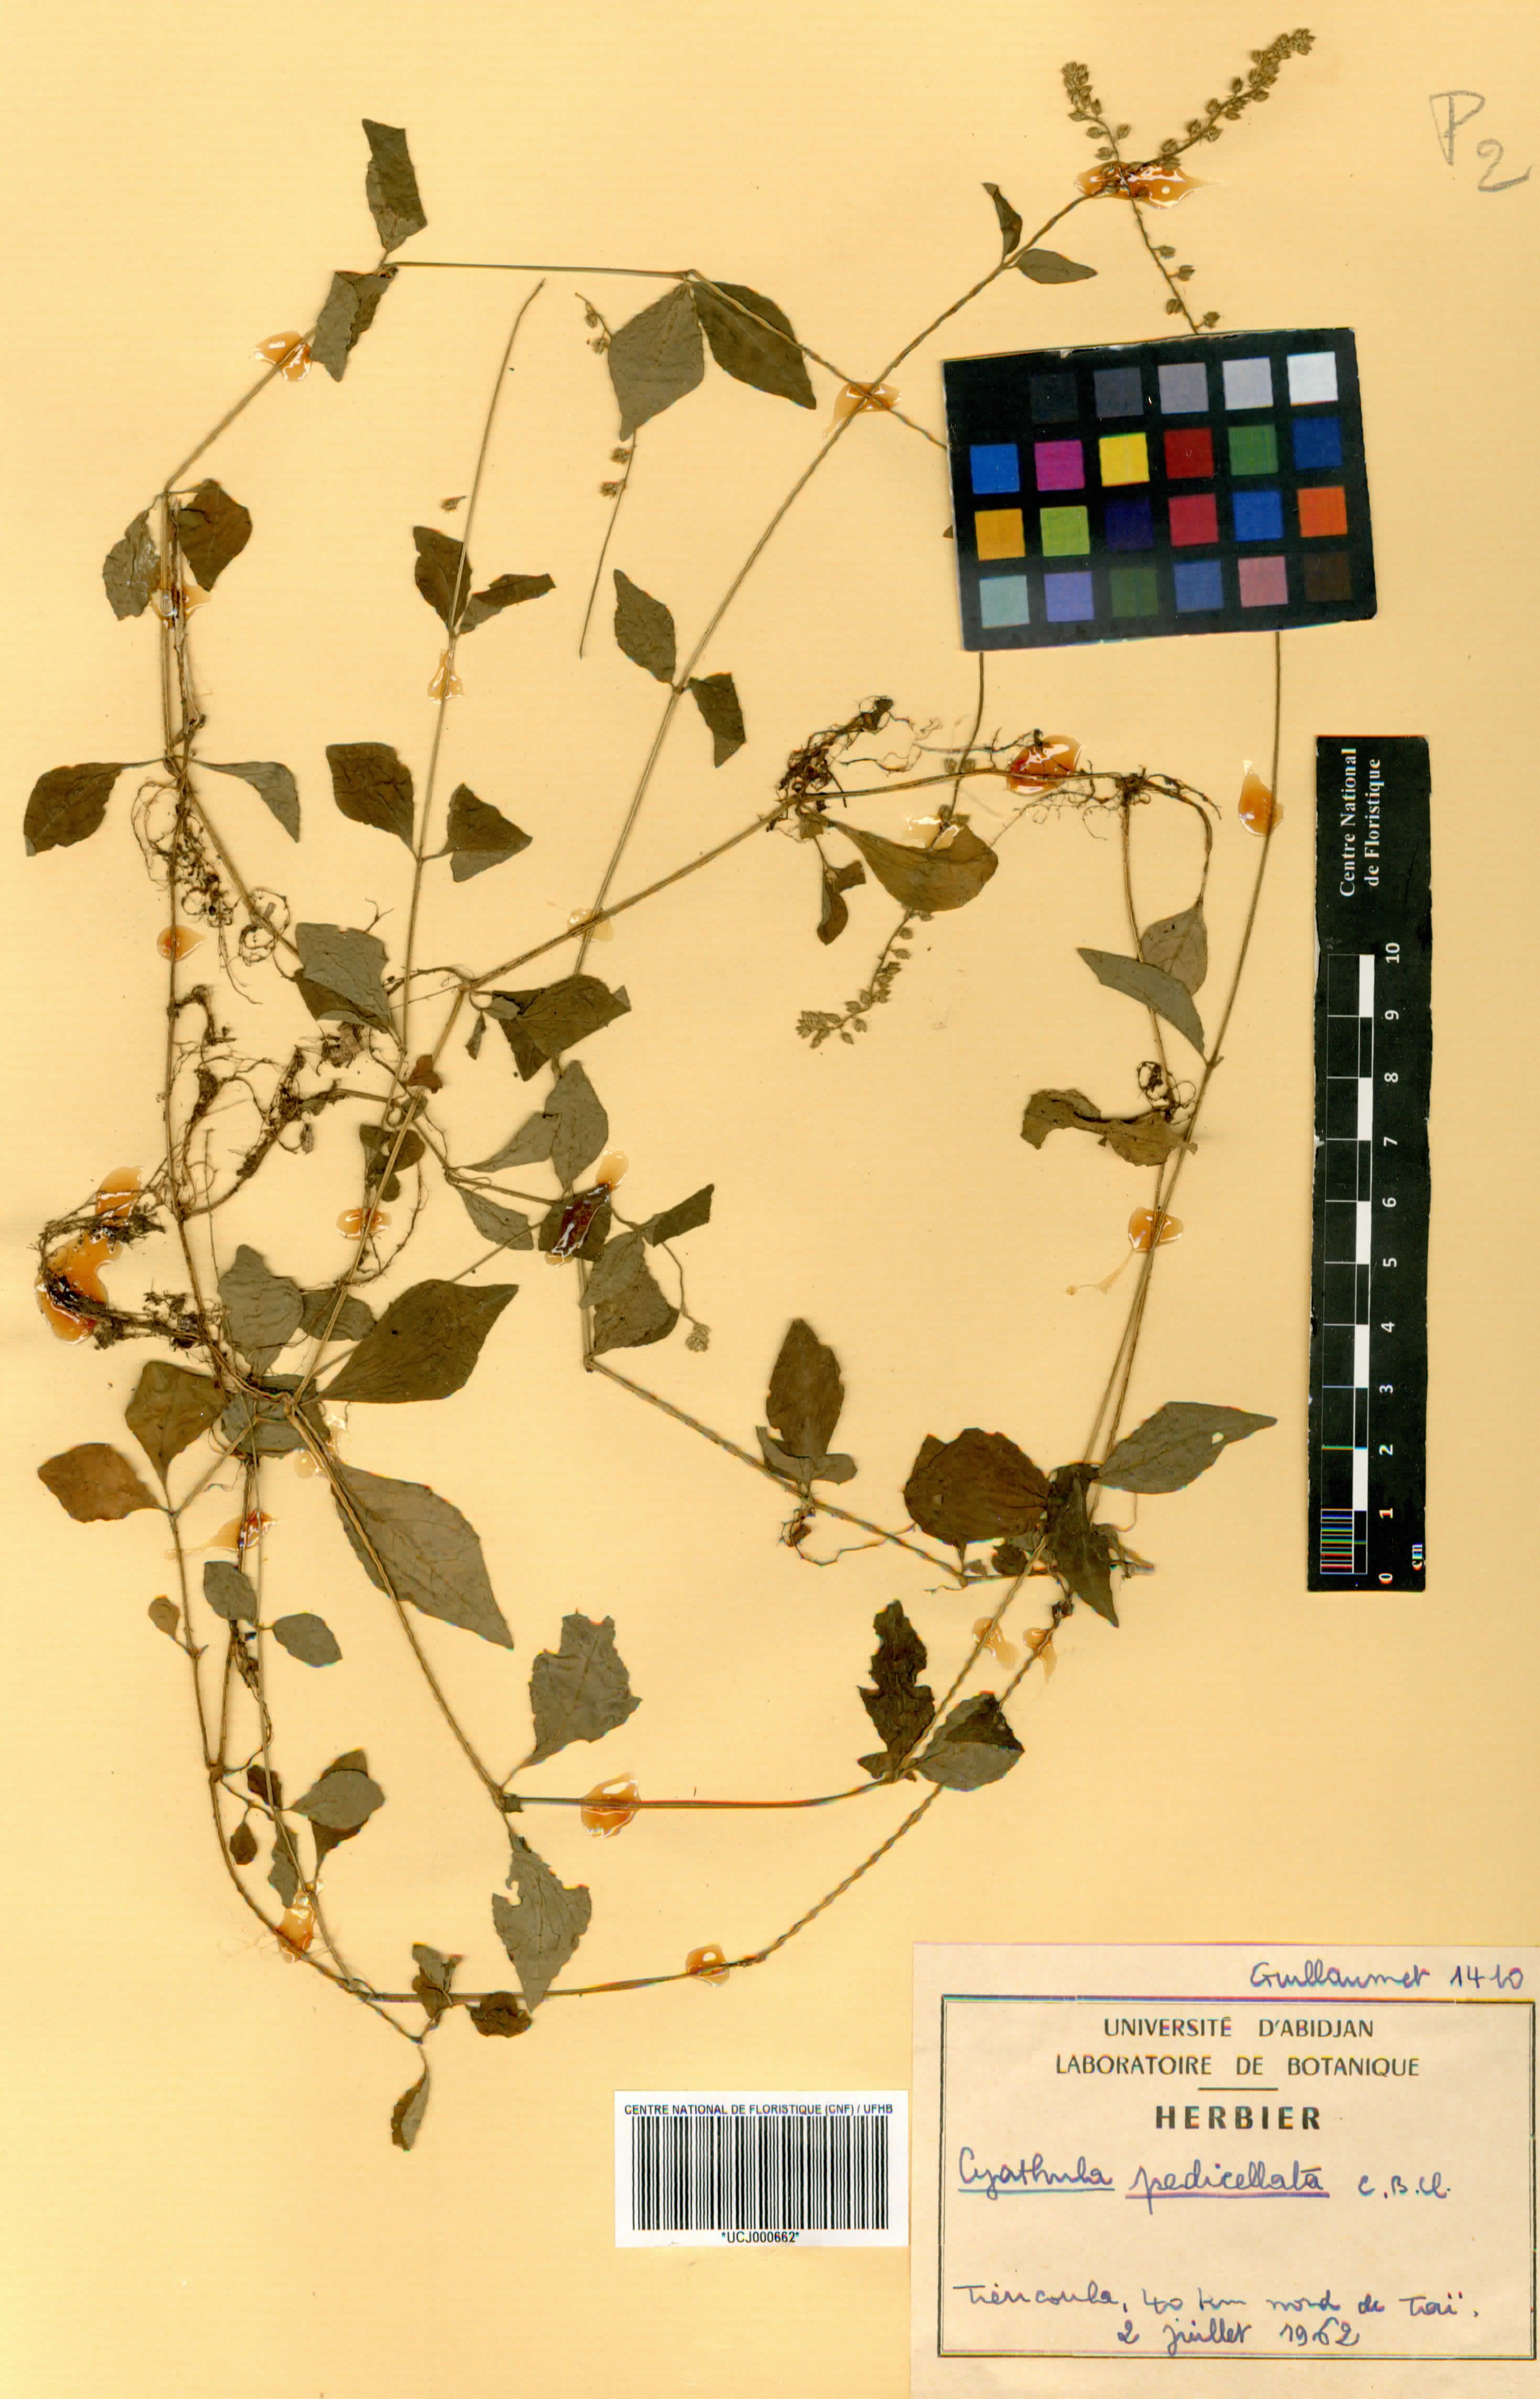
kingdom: Plantae
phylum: Tracheophyta
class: Magnoliopsida
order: Caryophyllales
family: Amaranthaceae
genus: Cyathula
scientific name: Cyathula prostrata
